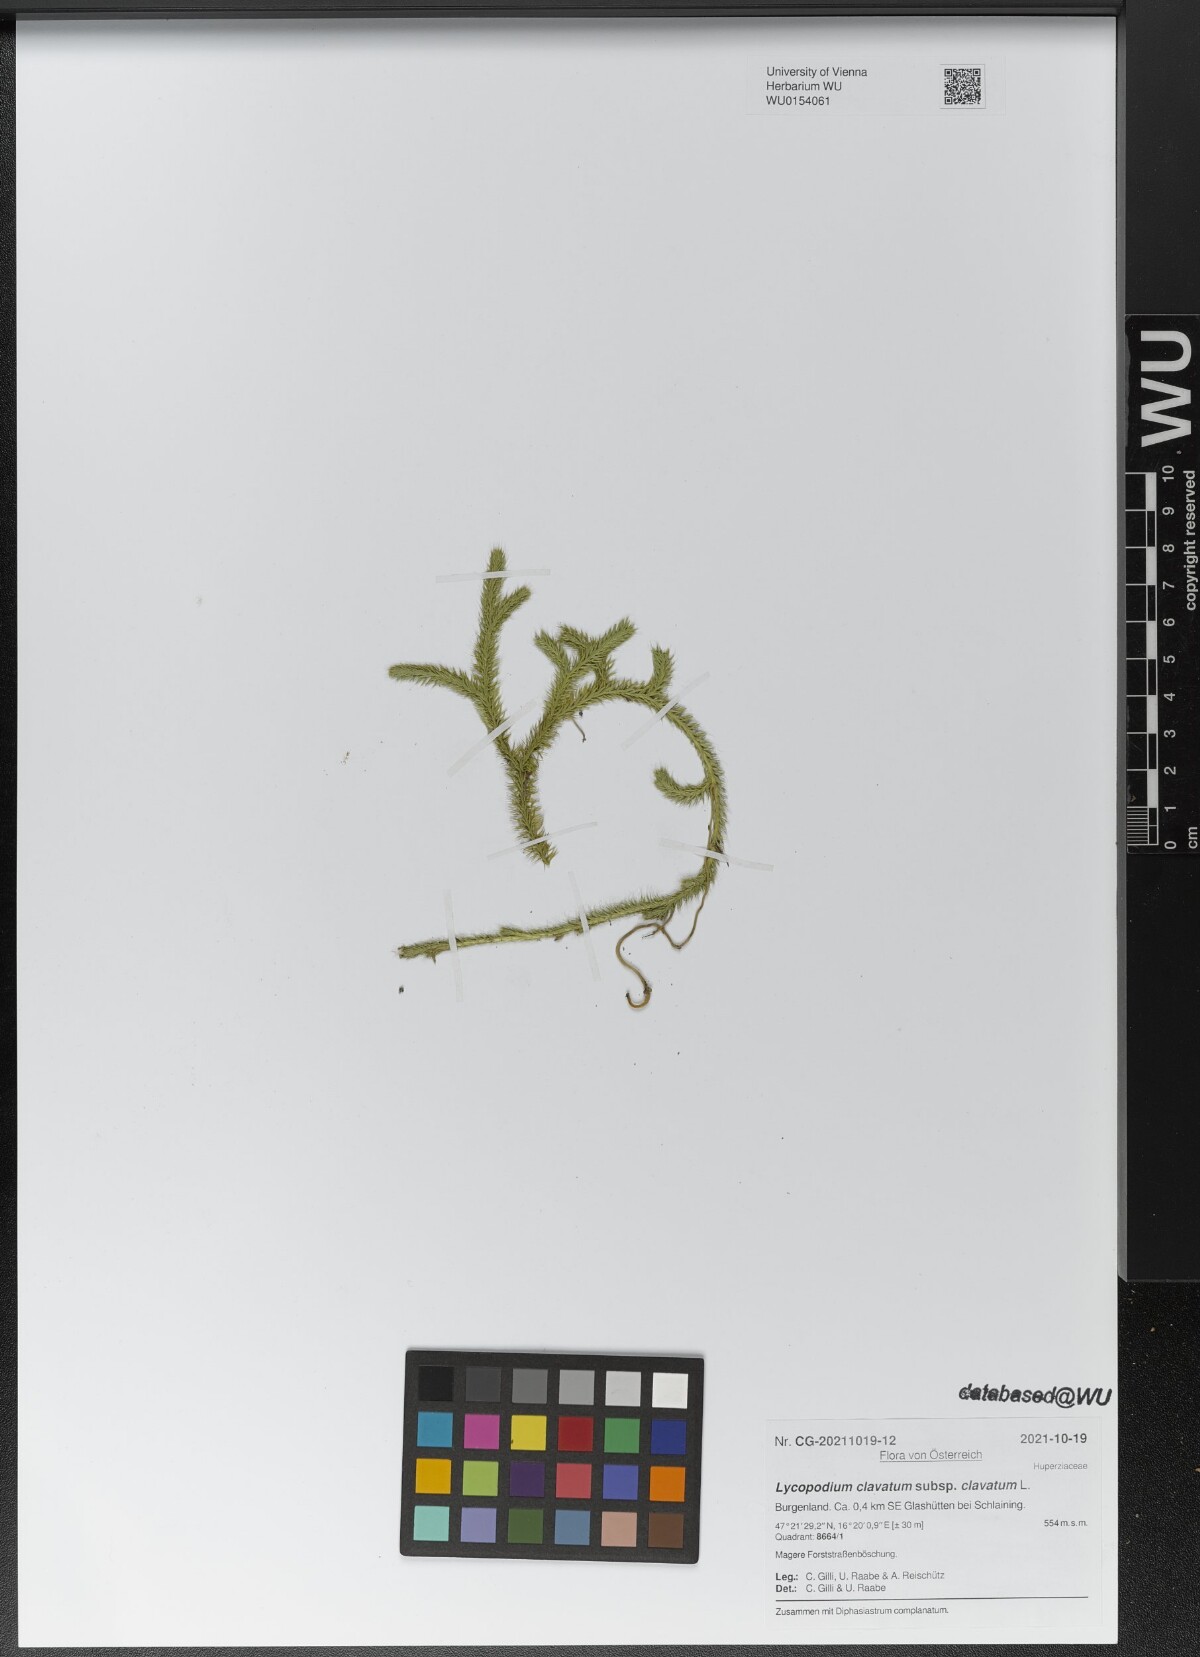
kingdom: Plantae
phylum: Tracheophyta
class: Lycopodiopsida
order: Lycopodiales
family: Lycopodiaceae
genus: Lycopodium
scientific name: Lycopodium clavatum
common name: Stag's-horn clubmoss
